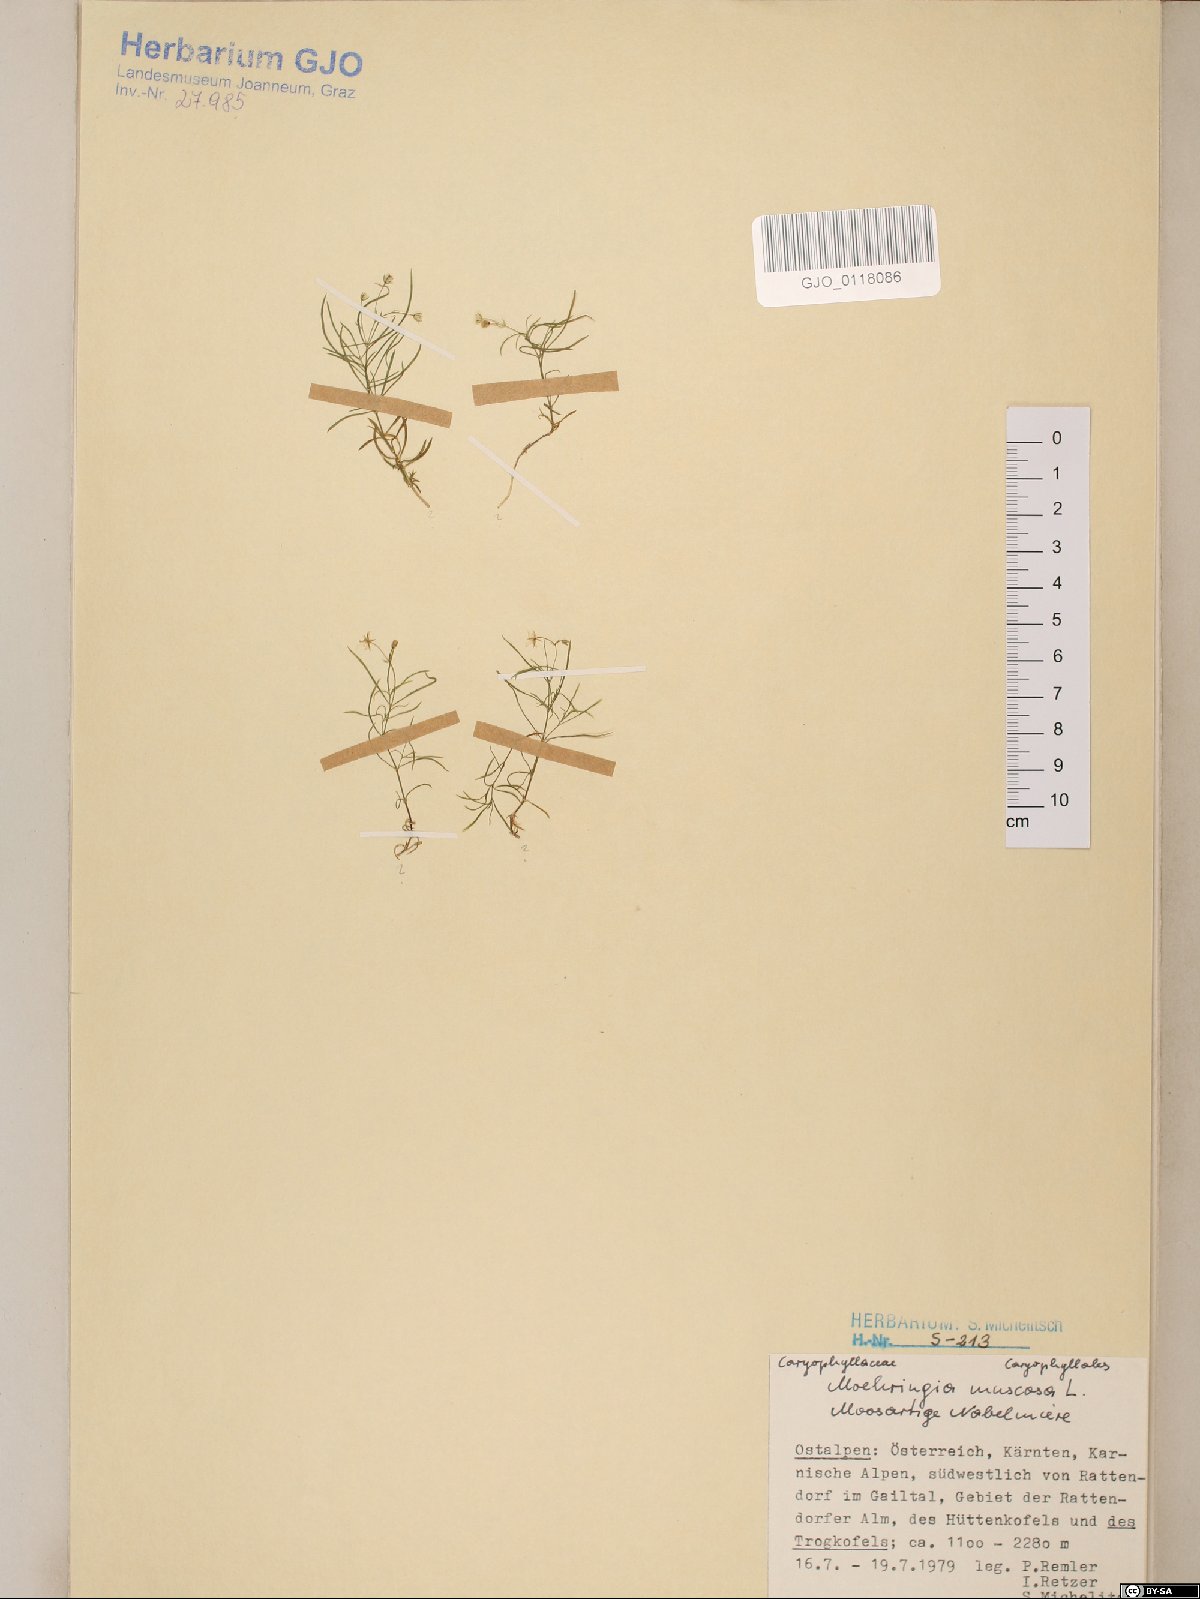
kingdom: Plantae
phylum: Tracheophyta
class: Magnoliopsida
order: Caryophyllales
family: Caryophyllaceae
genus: Moehringia
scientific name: Moehringia muscosa
